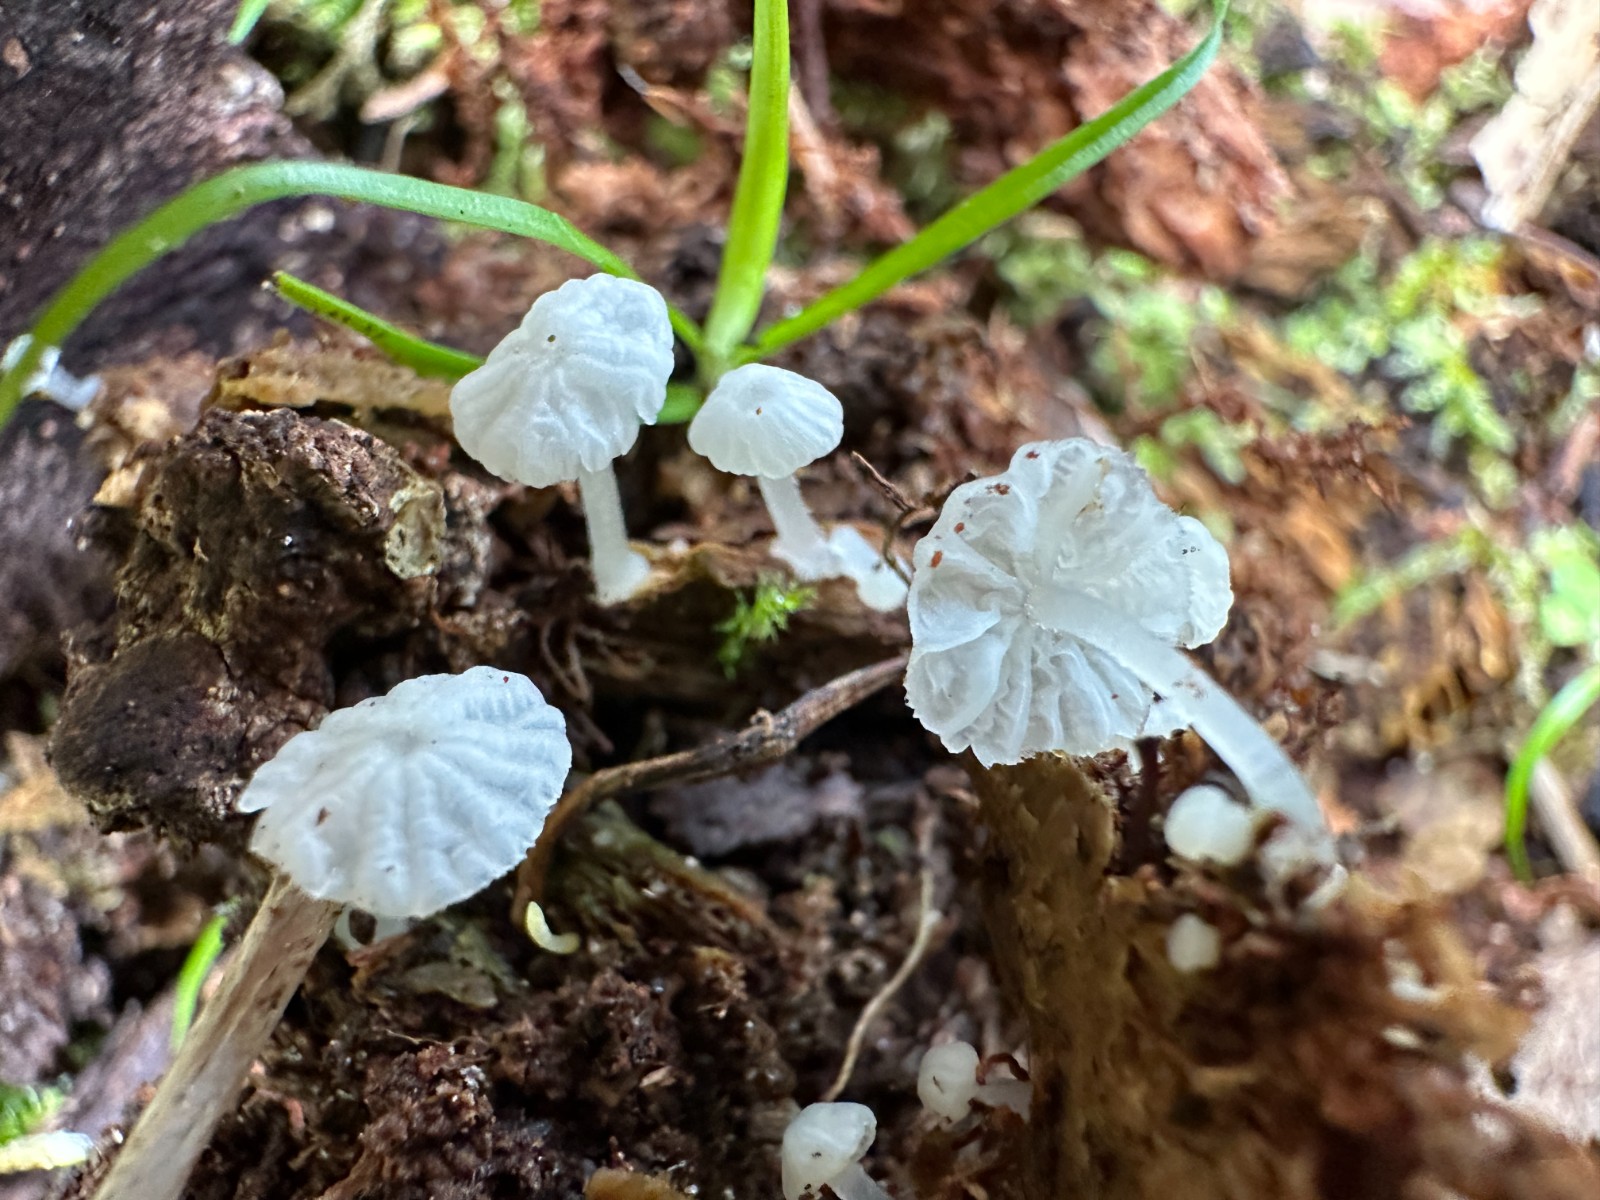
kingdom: Fungi
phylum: Basidiomycota
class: Agaricomycetes
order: Agaricales
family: Tricholomataceae
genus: Delicatula
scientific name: Delicatula integrella
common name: slørhuesvamp
